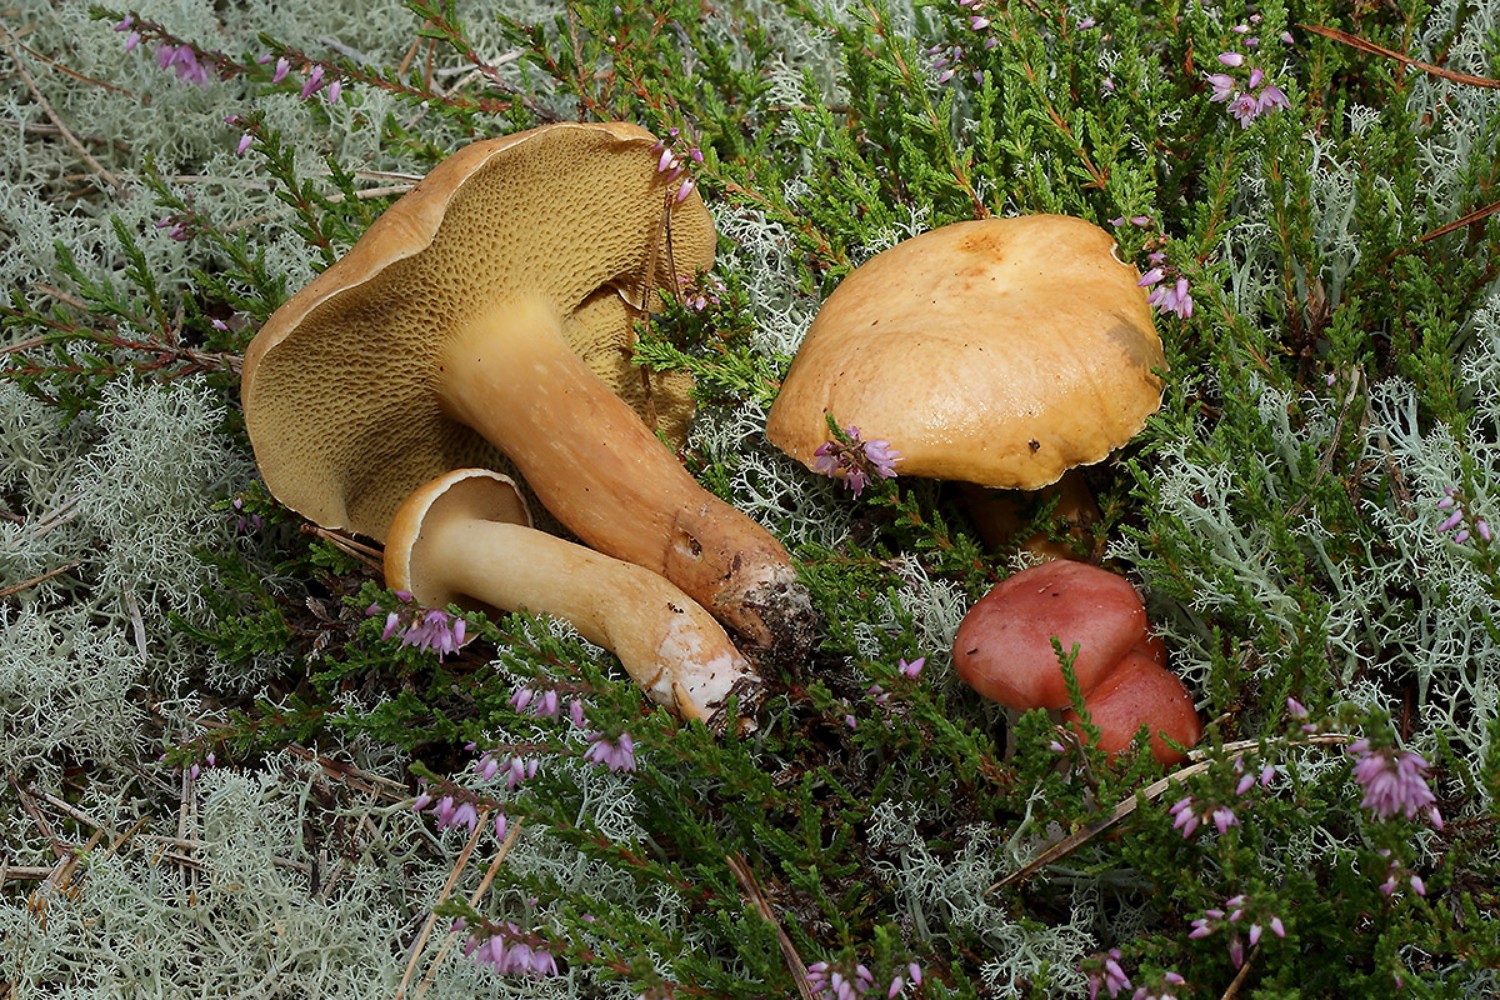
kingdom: Fungi
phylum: Basidiomycota
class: Agaricomycetes
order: Boletales
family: Gomphidiaceae
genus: Gomphidius
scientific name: Gomphidius roseus
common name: rosenrød slimslør
